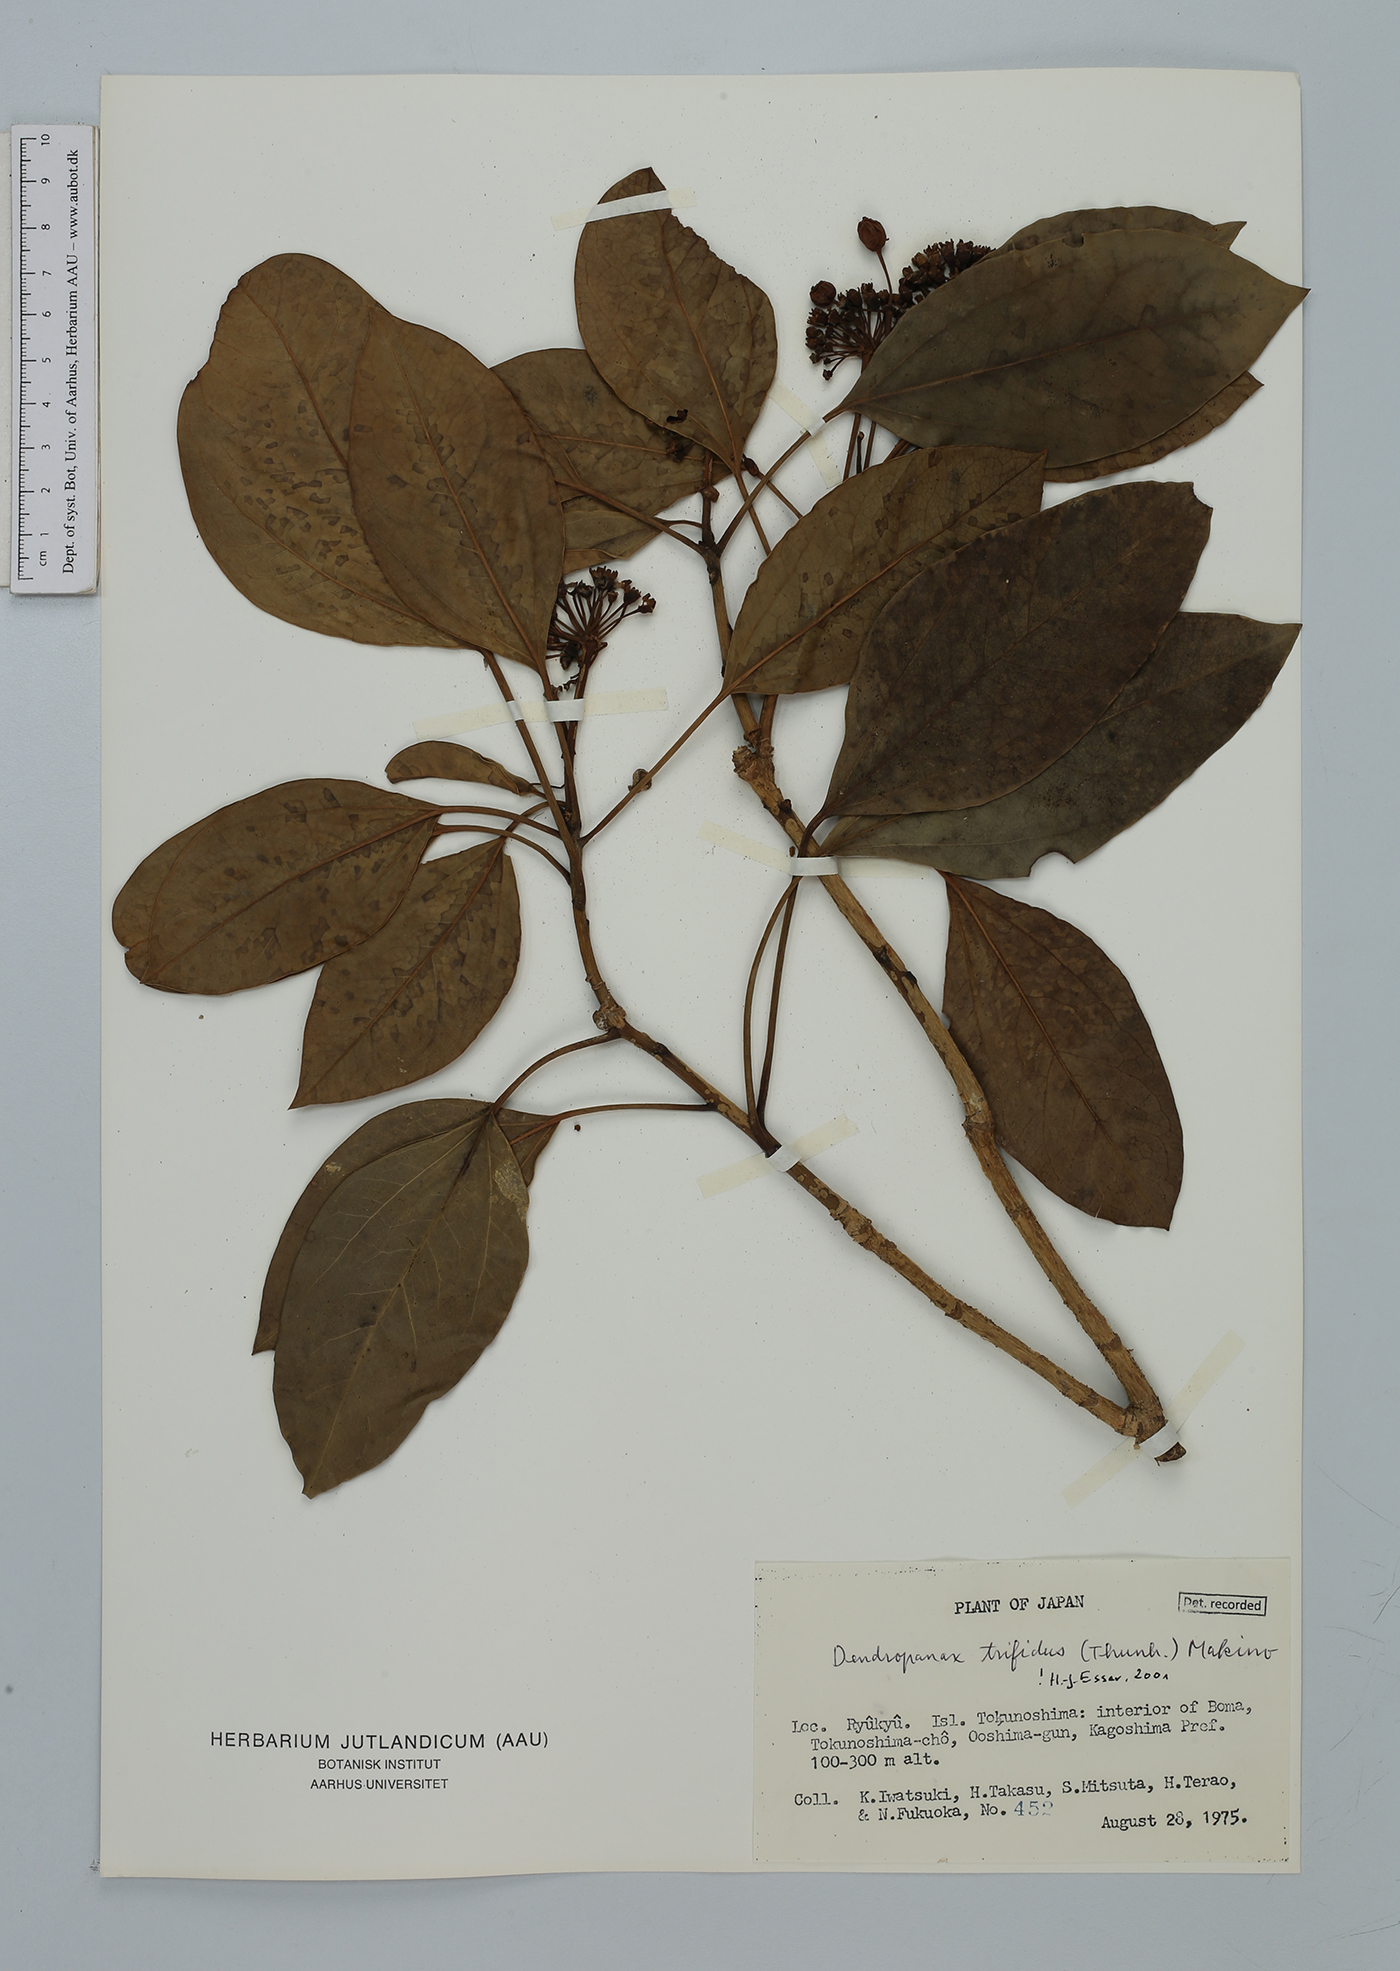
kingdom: Plantae
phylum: Tracheophyta
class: Magnoliopsida
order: Apiales
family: Araliaceae
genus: Dendropanax
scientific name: Dendropanax trifidus
